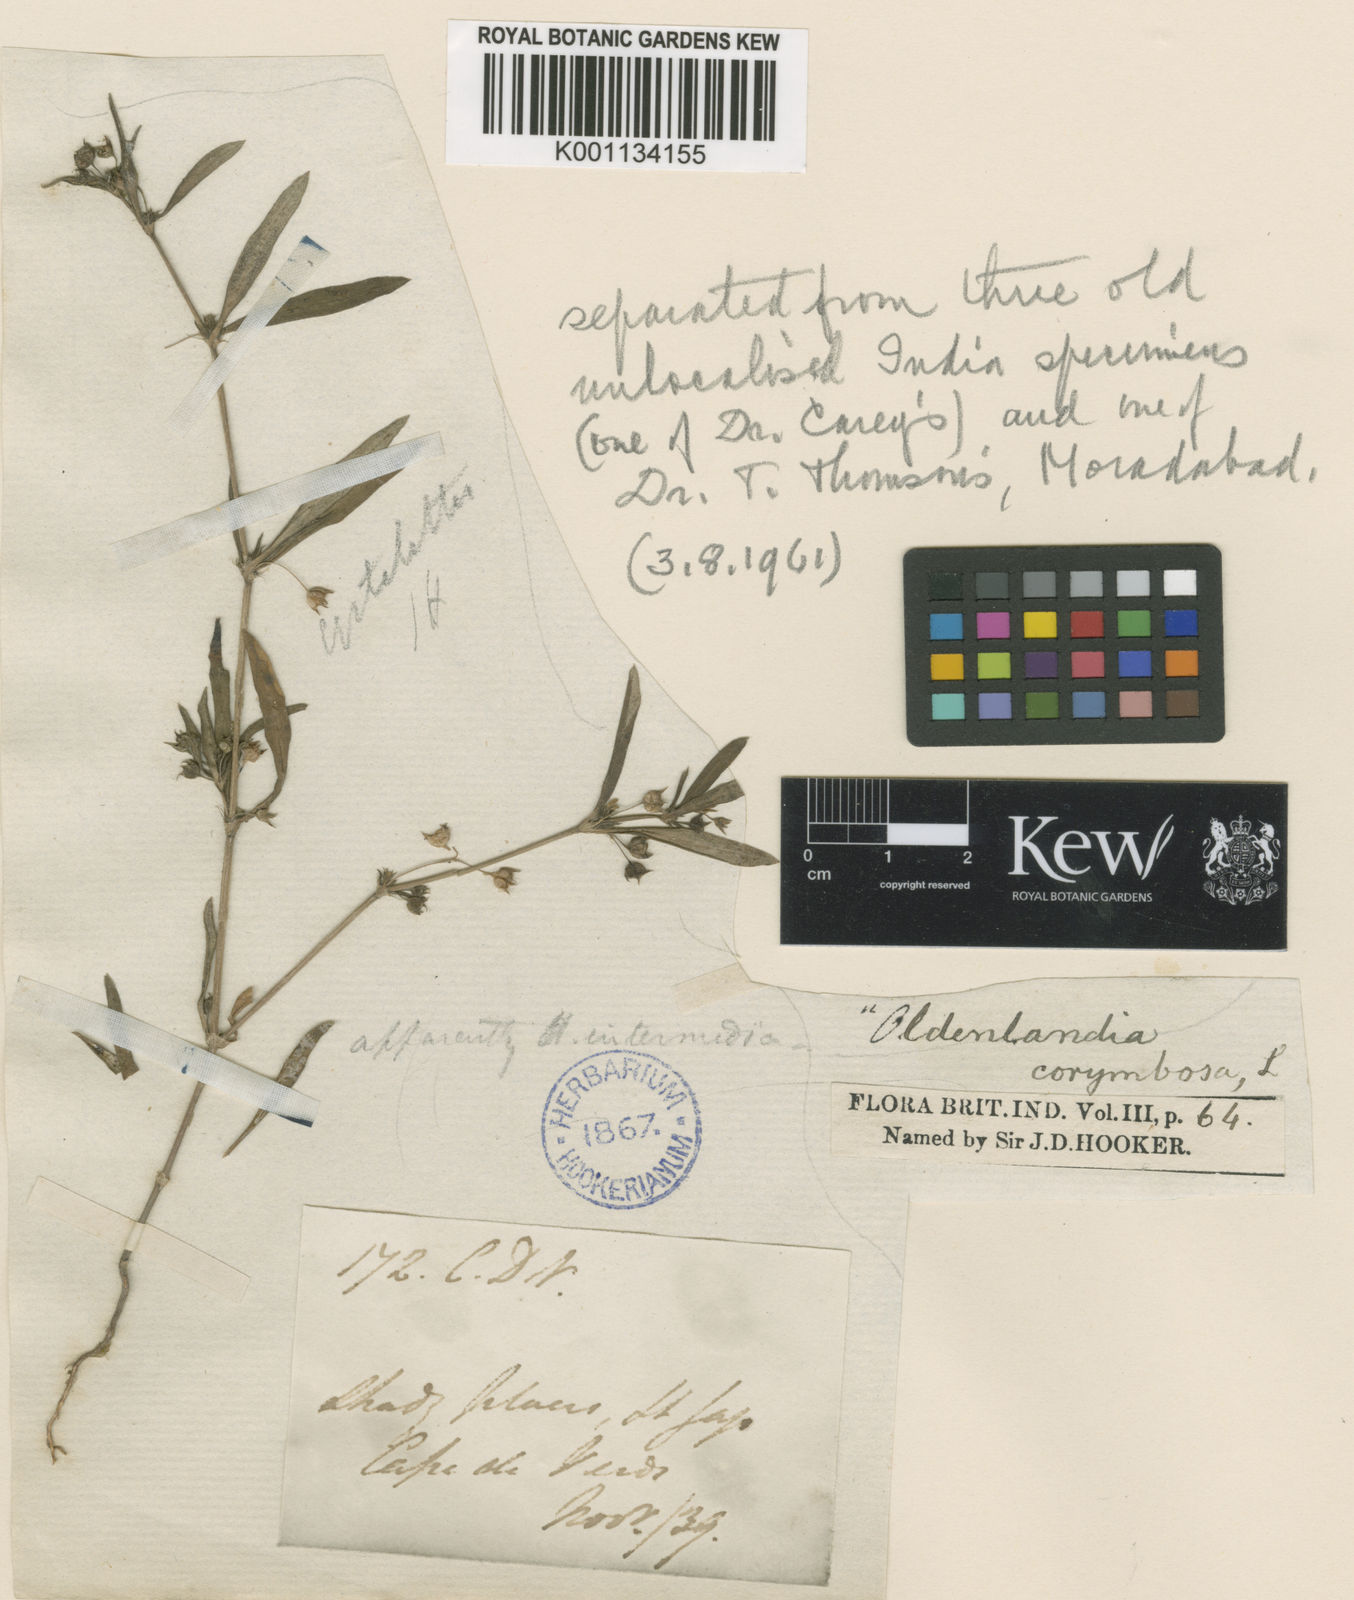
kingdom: Plantae
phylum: Tracheophyta
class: Magnoliopsida
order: Gentianales
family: Rubiaceae
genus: Oldenlandia
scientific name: Oldenlandia corymbosa
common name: Flat-top mille graines
